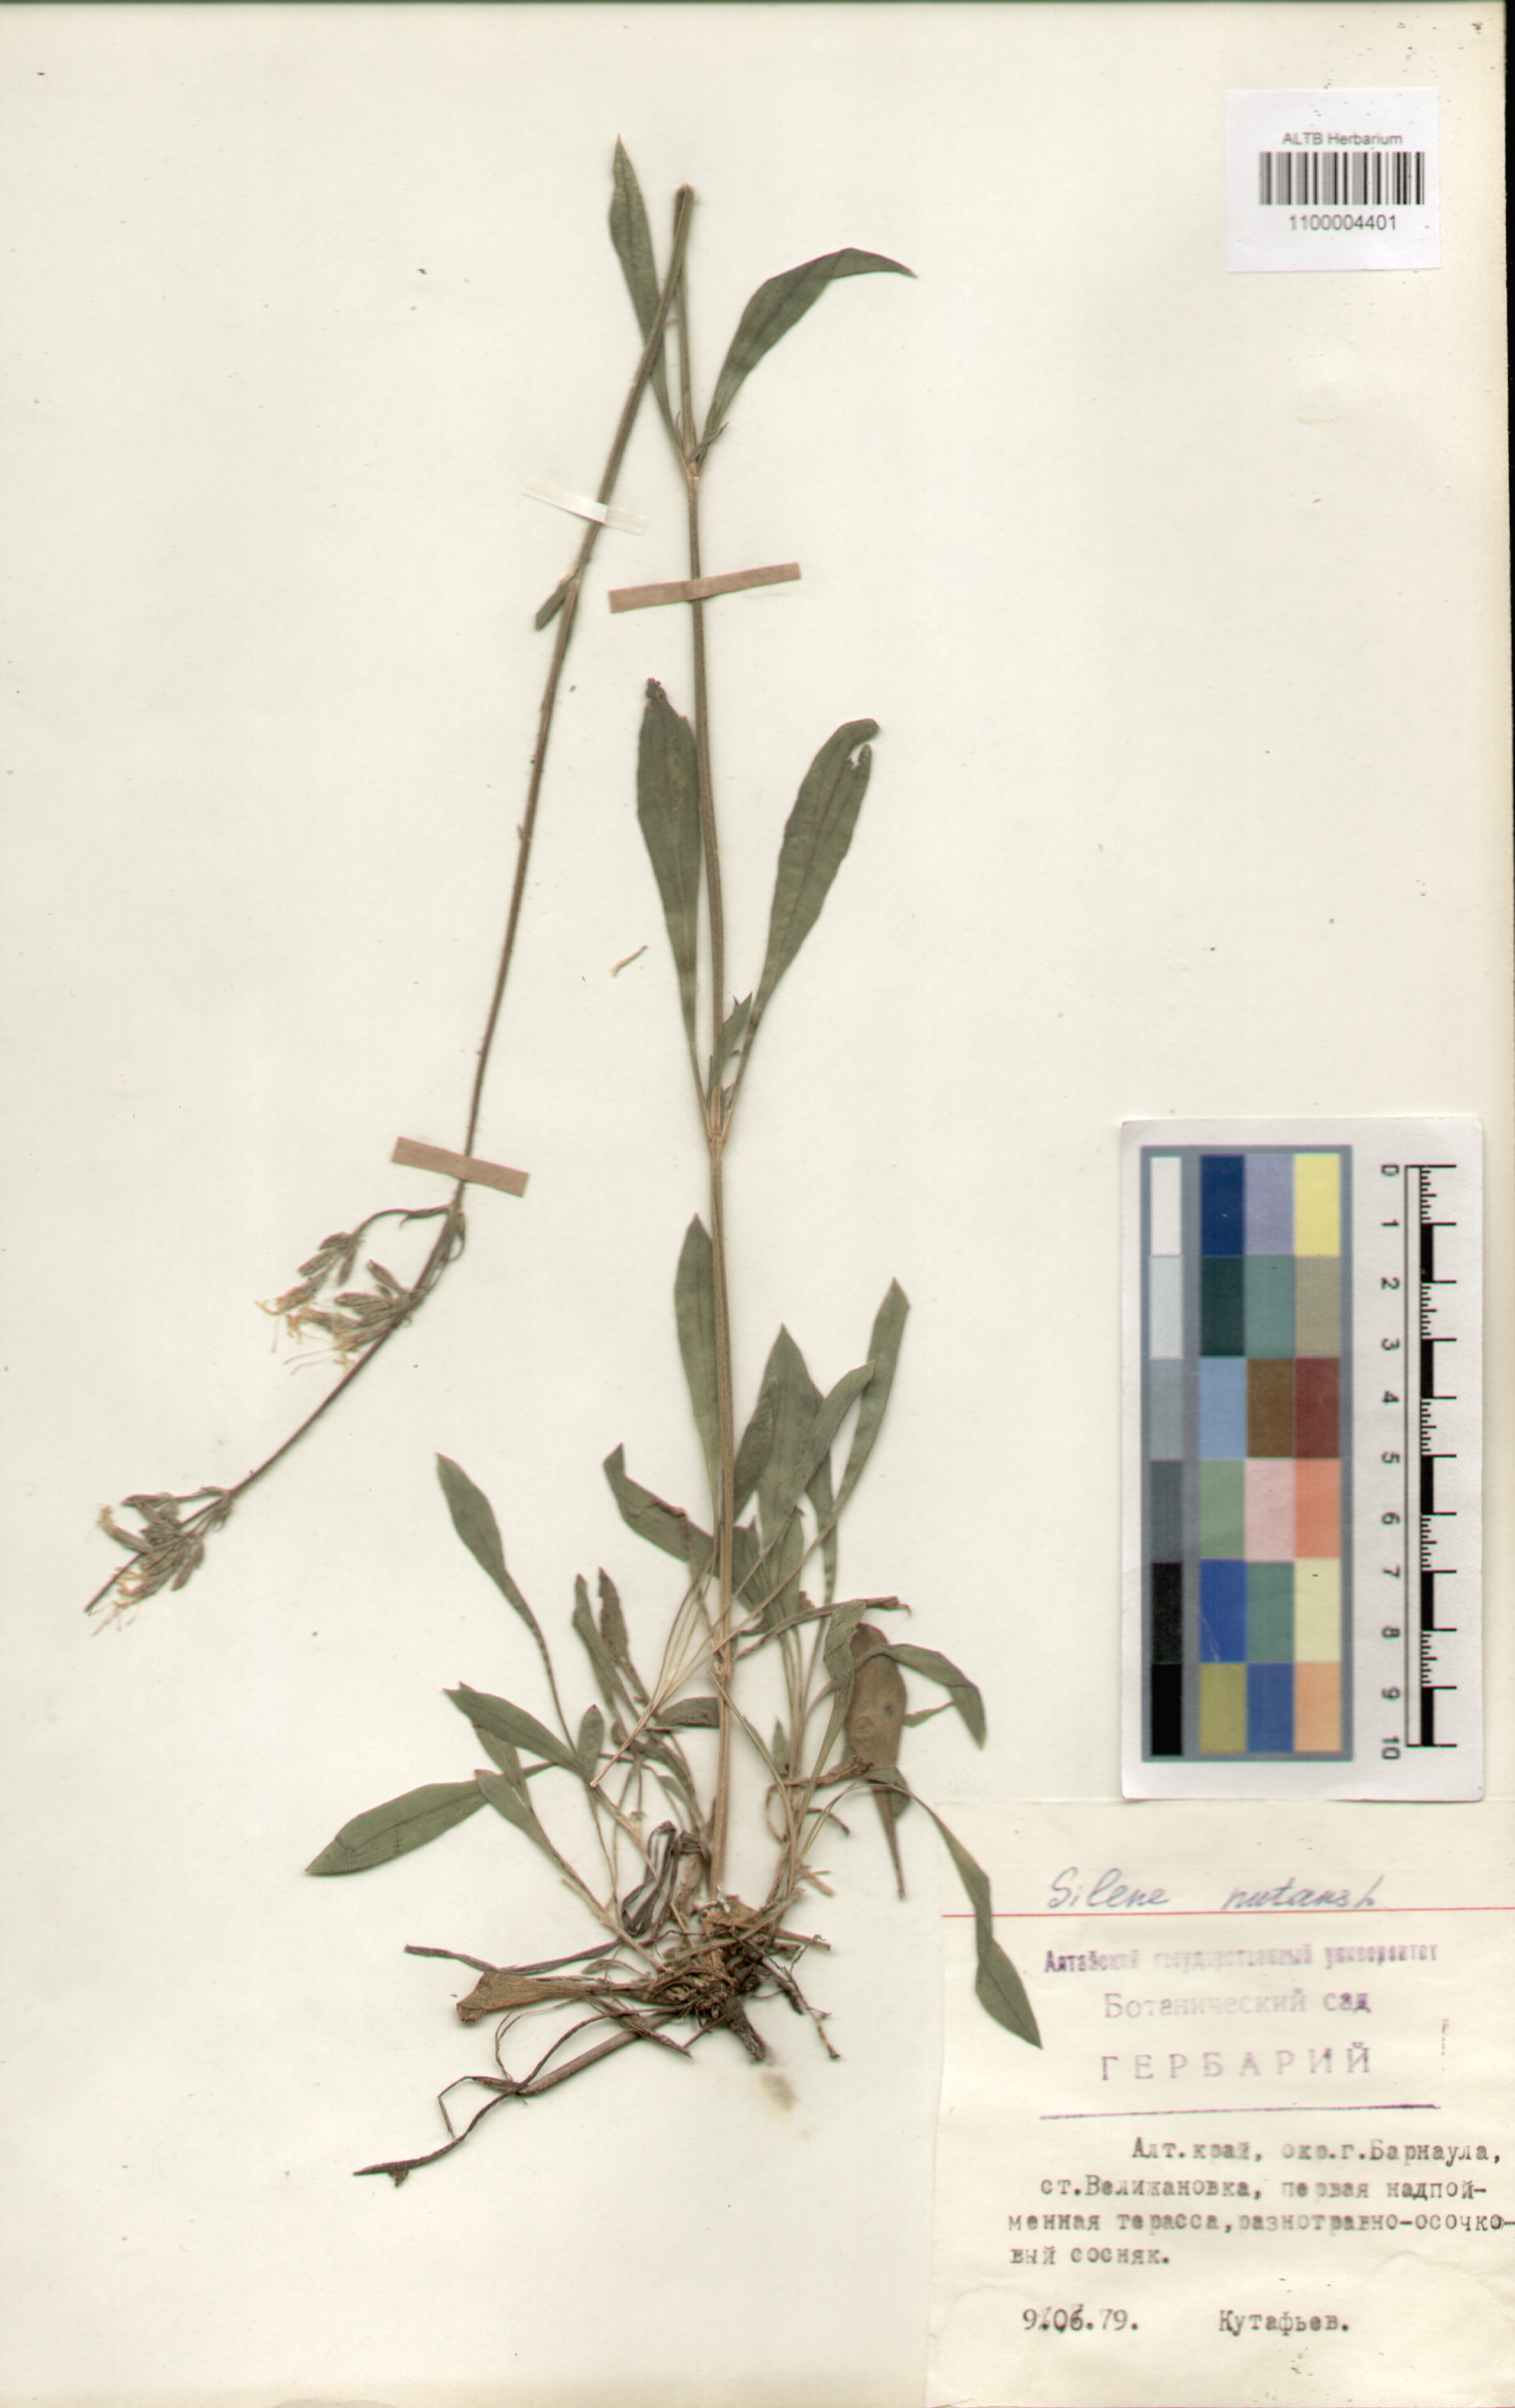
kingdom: Plantae
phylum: Tracheophyta
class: Magnoliopsida
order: Caryophyllales
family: Caryophyllaceae
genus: Silene
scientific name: Silene nutans
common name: Nottingham catchfly
